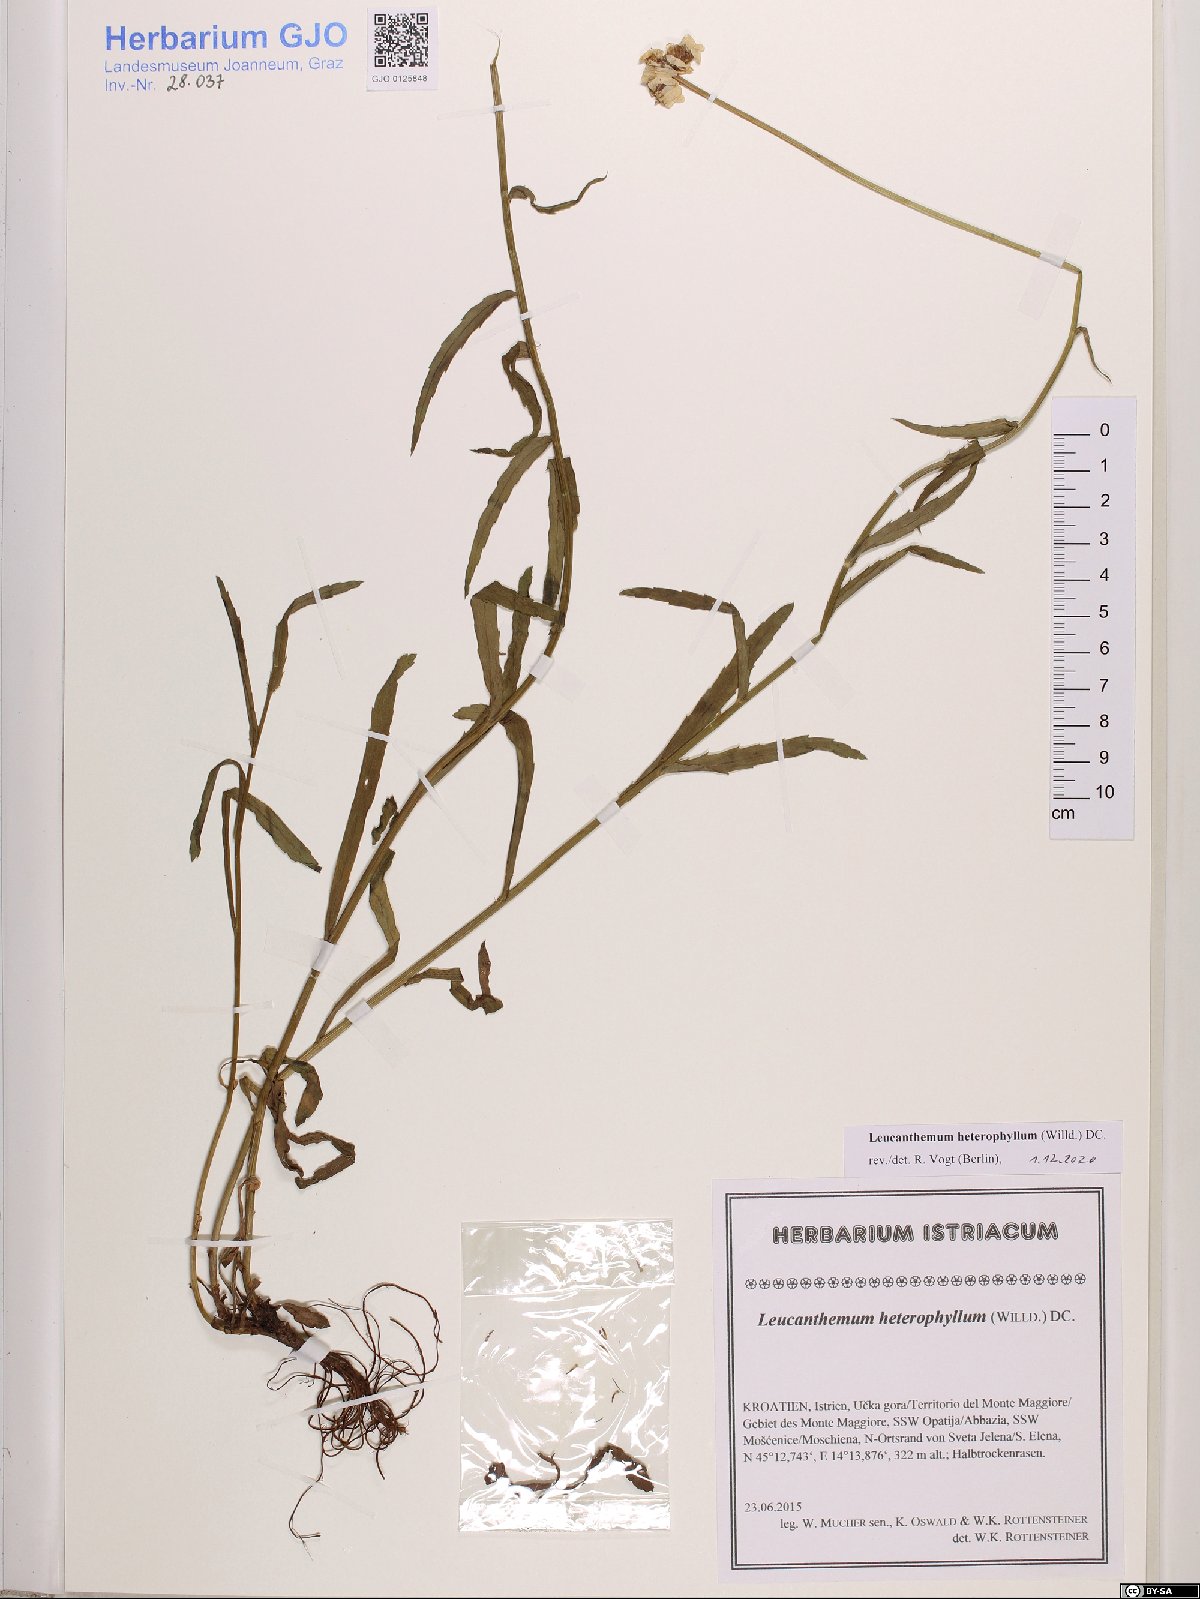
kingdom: Plantae
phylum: Tracheophyta
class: Magnoliopsida
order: Asterales
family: Asteraceae
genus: Leucanthemum
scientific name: Leucanthemum heterophyllum
